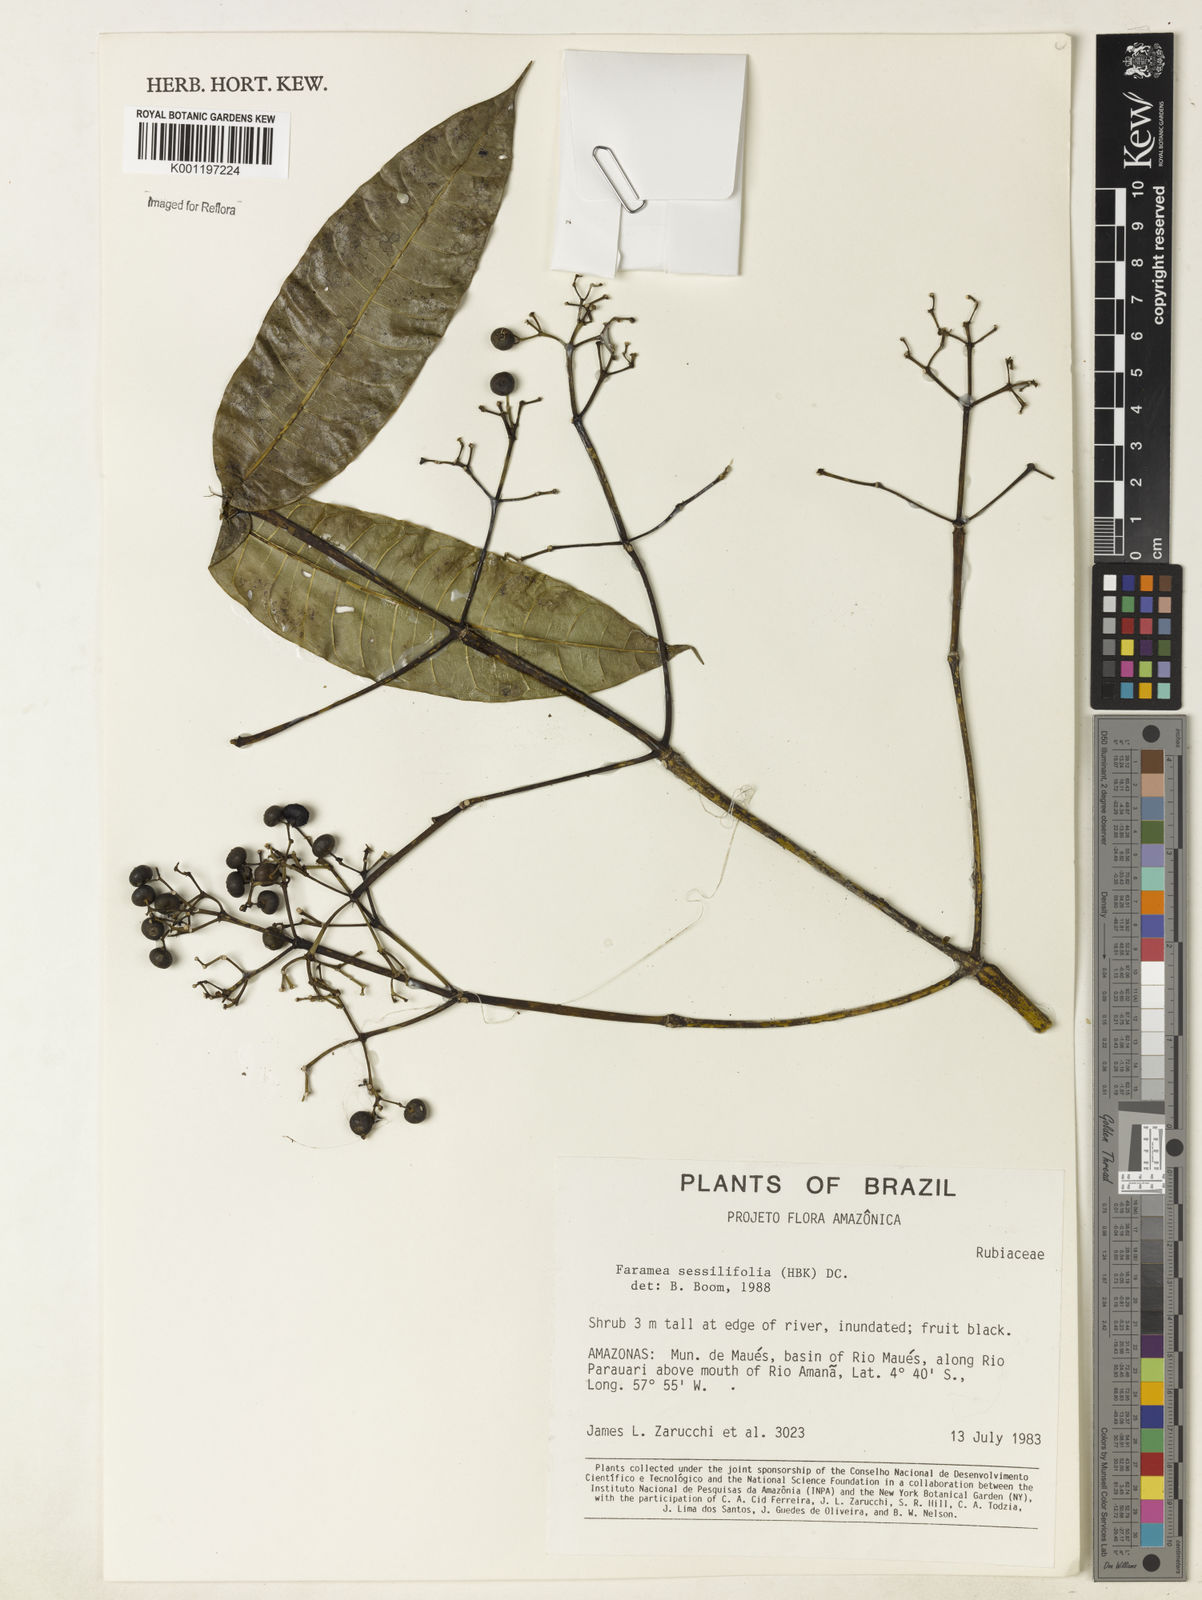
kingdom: Plantae
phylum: Tracheophyta
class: Magnoliopsida
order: Gentianales
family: Rubiaceae
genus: Faramea
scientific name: Faramea sessilifolia
